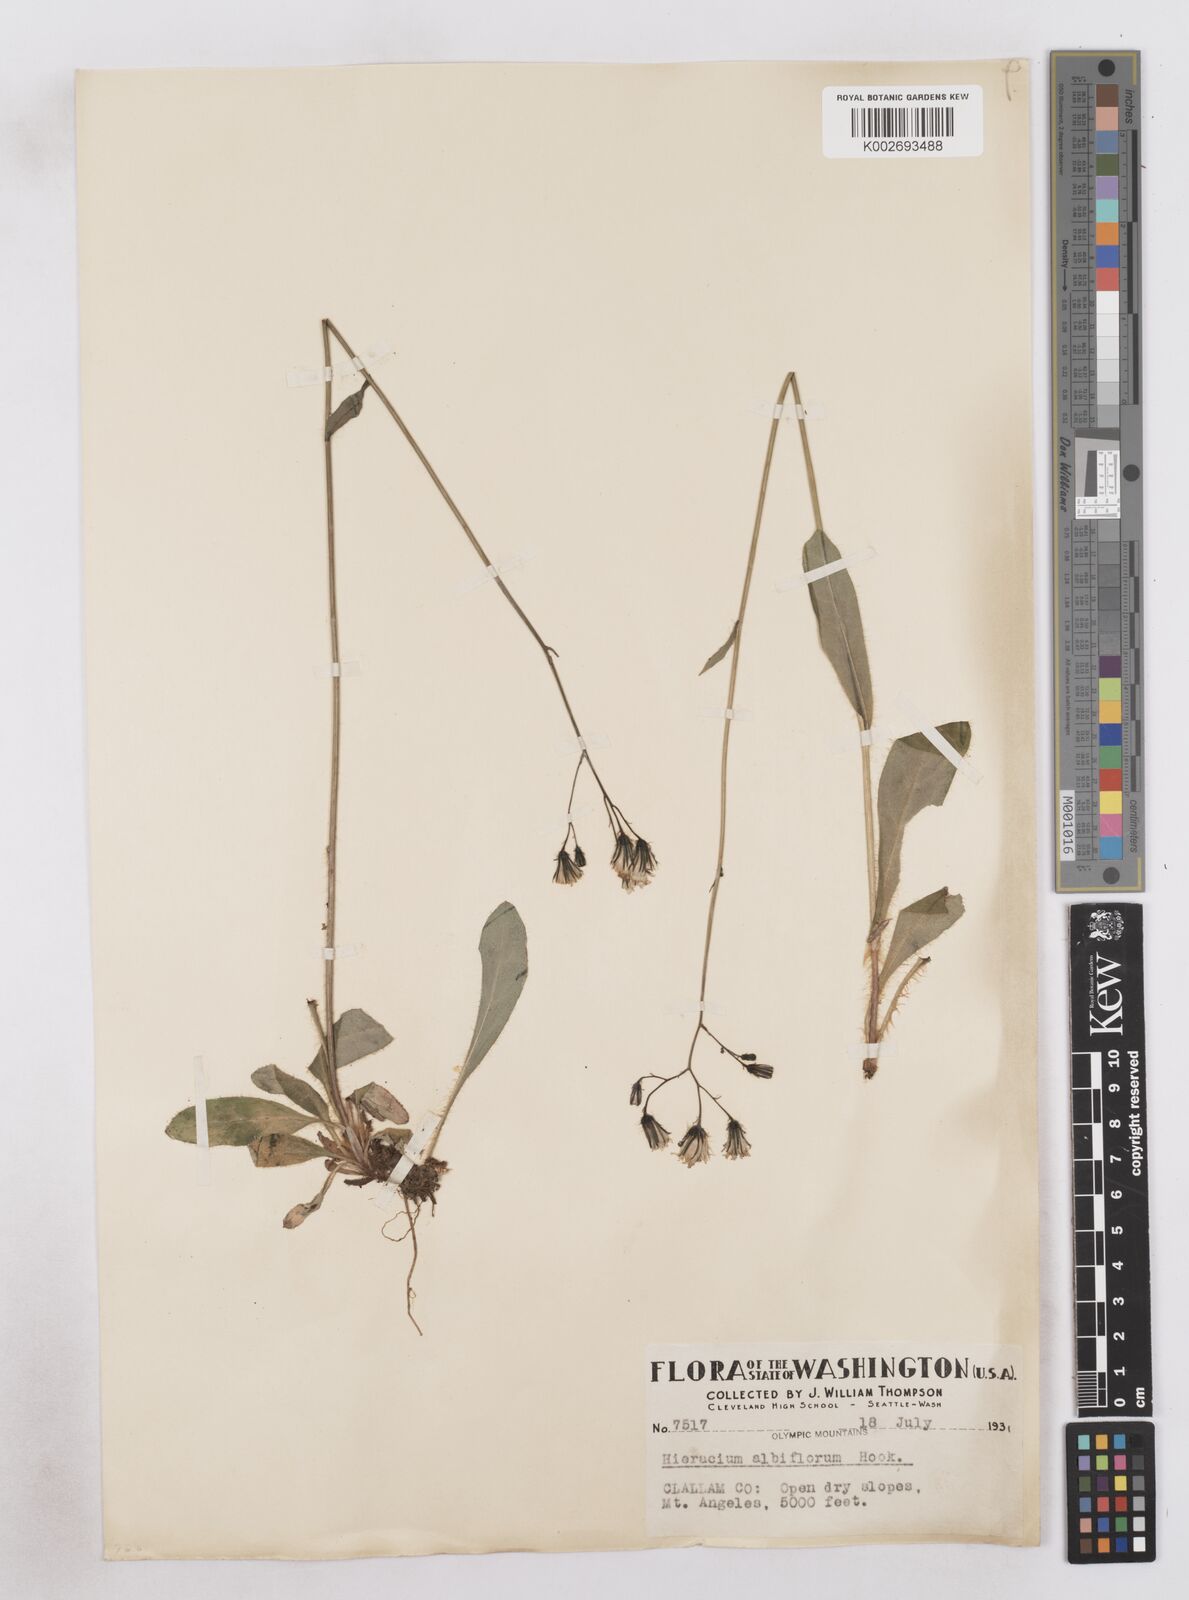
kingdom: Plantae
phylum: Tracheophyta
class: Magnoliopsida
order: Asterales
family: Asteraceae
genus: Hieracium
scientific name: Hieracium albiflorum
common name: White hawkweed
